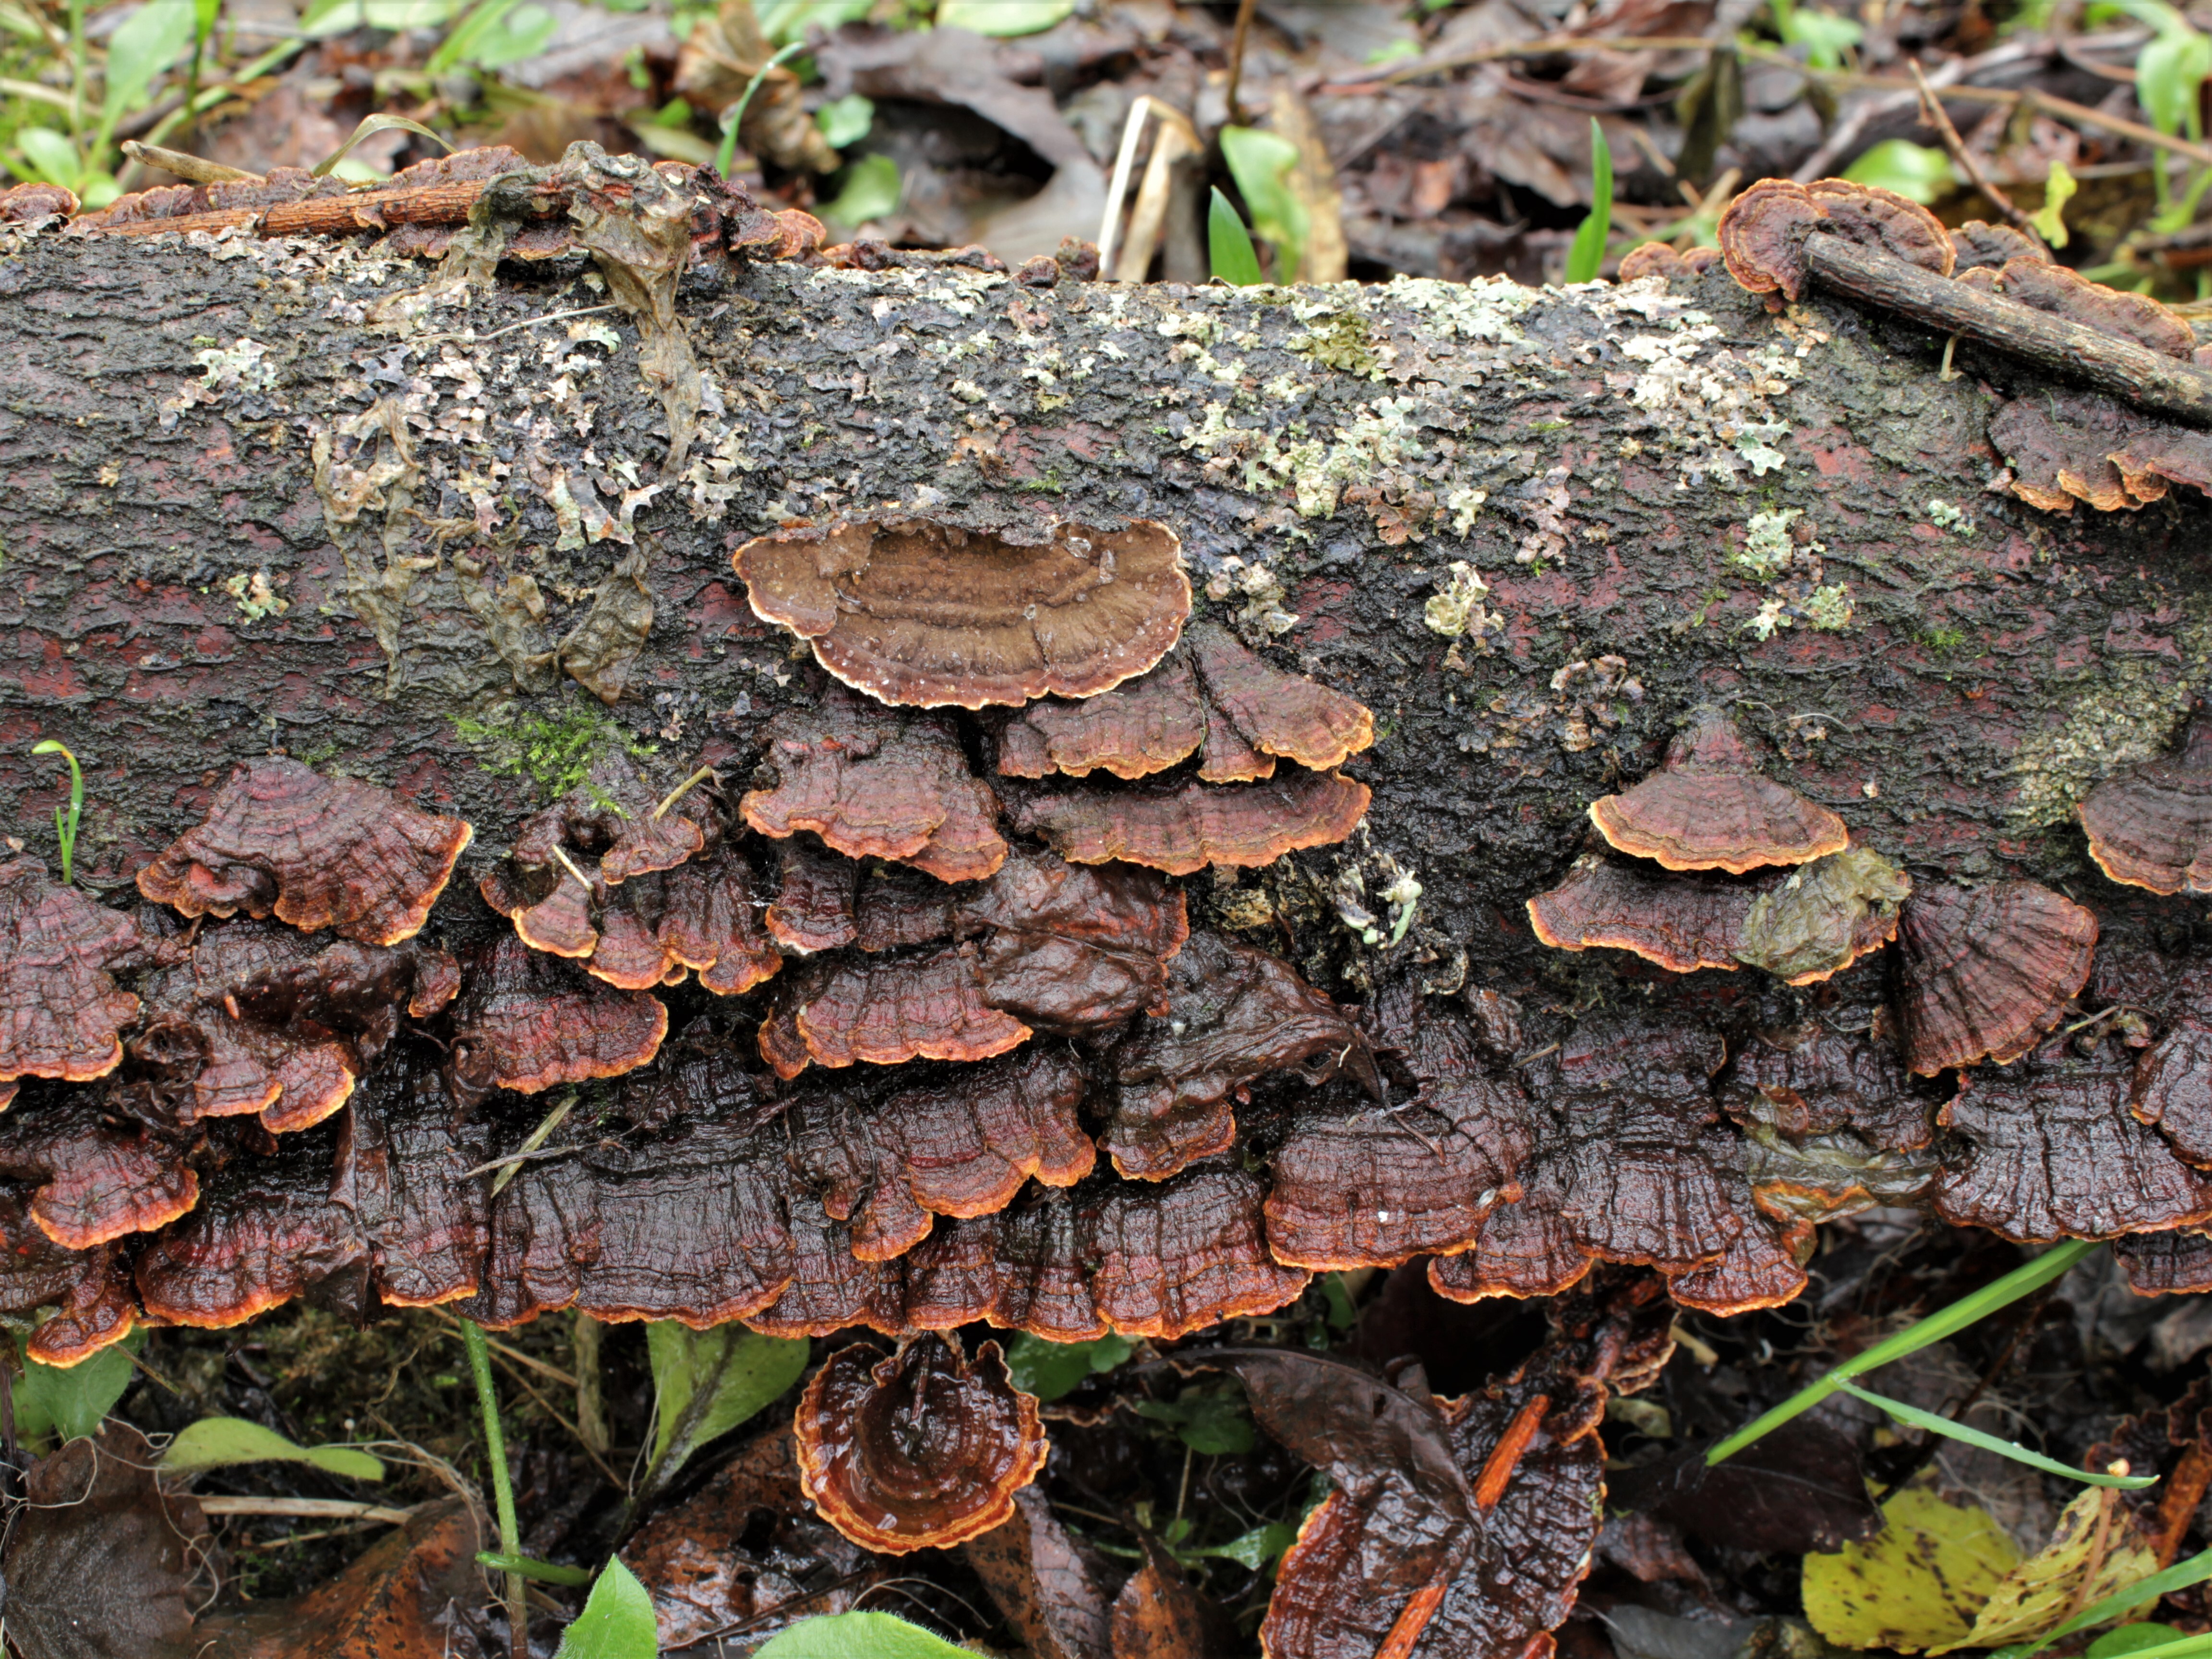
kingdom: Fungi
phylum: Basidiomycota
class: Agaricomycetes
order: Hymenochaetales
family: Hymenochaetaceae
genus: Hydnoporia
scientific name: Hydnoporia tabacina
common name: Willow glue
